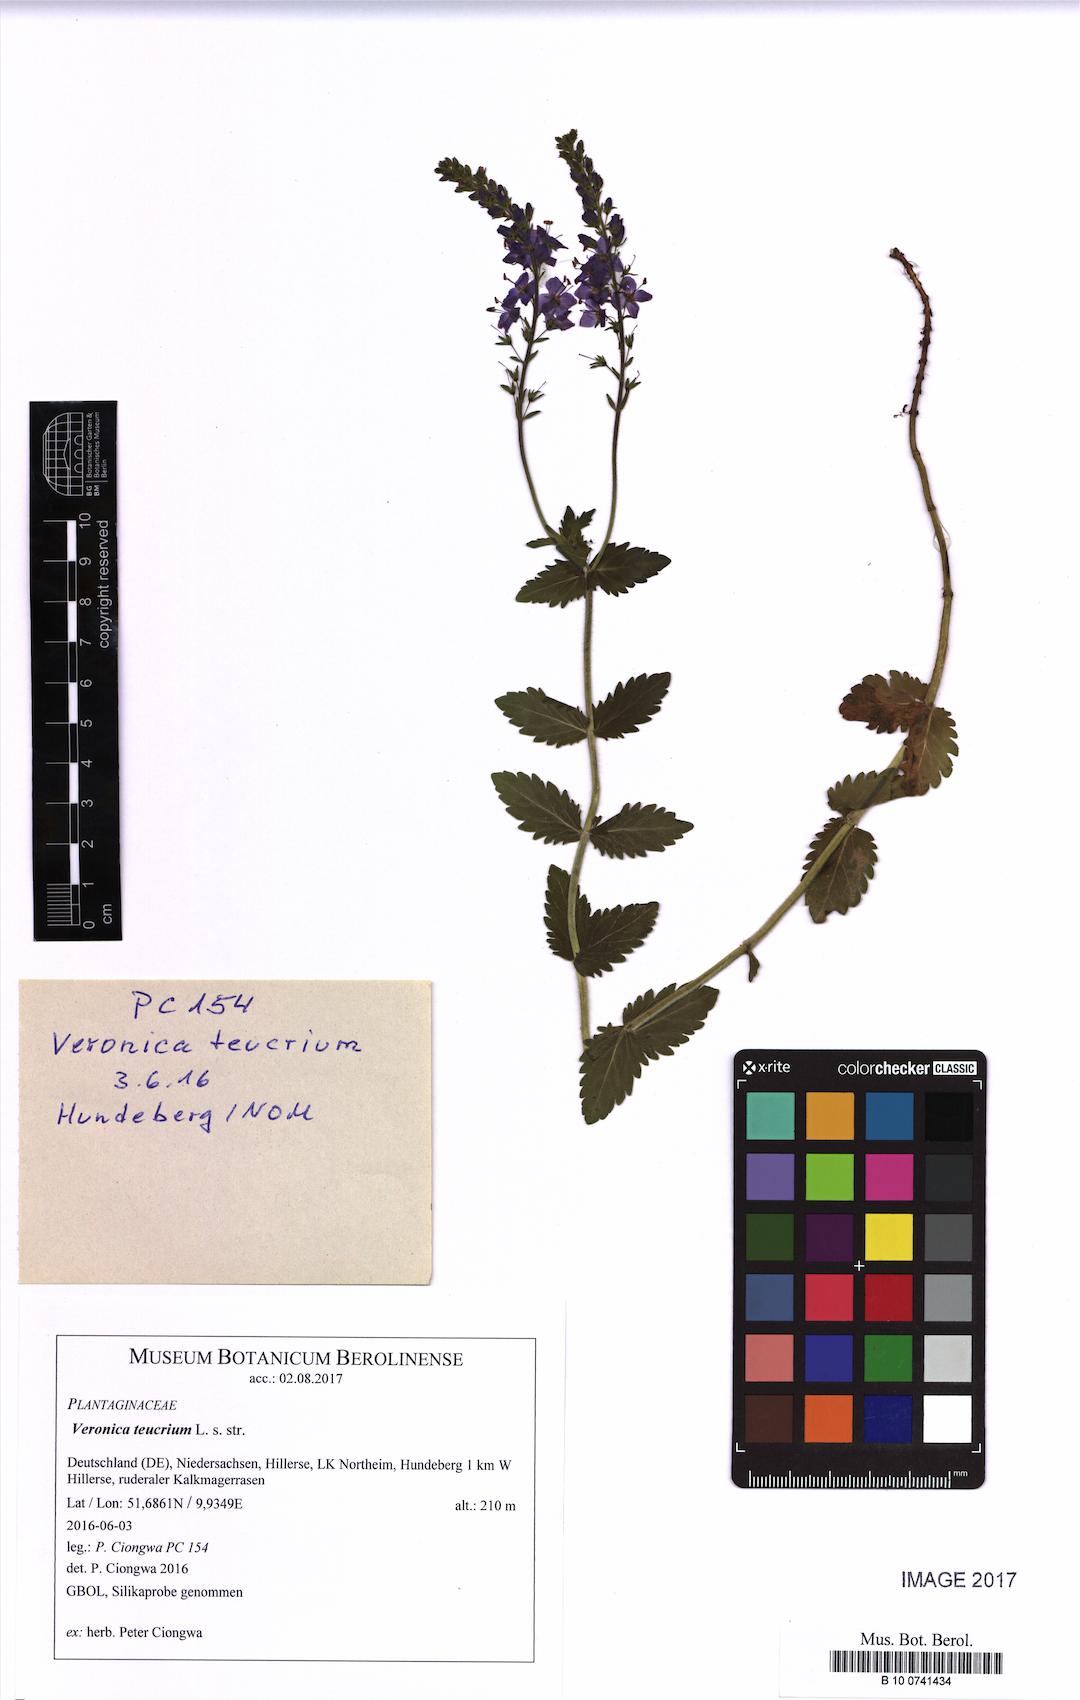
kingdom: Plantae
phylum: Tracheophyta
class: Magnoliopsida
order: Lamiales
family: Plantaginaceae
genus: Veronica
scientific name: Veronica teucrium
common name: Large speedwell
